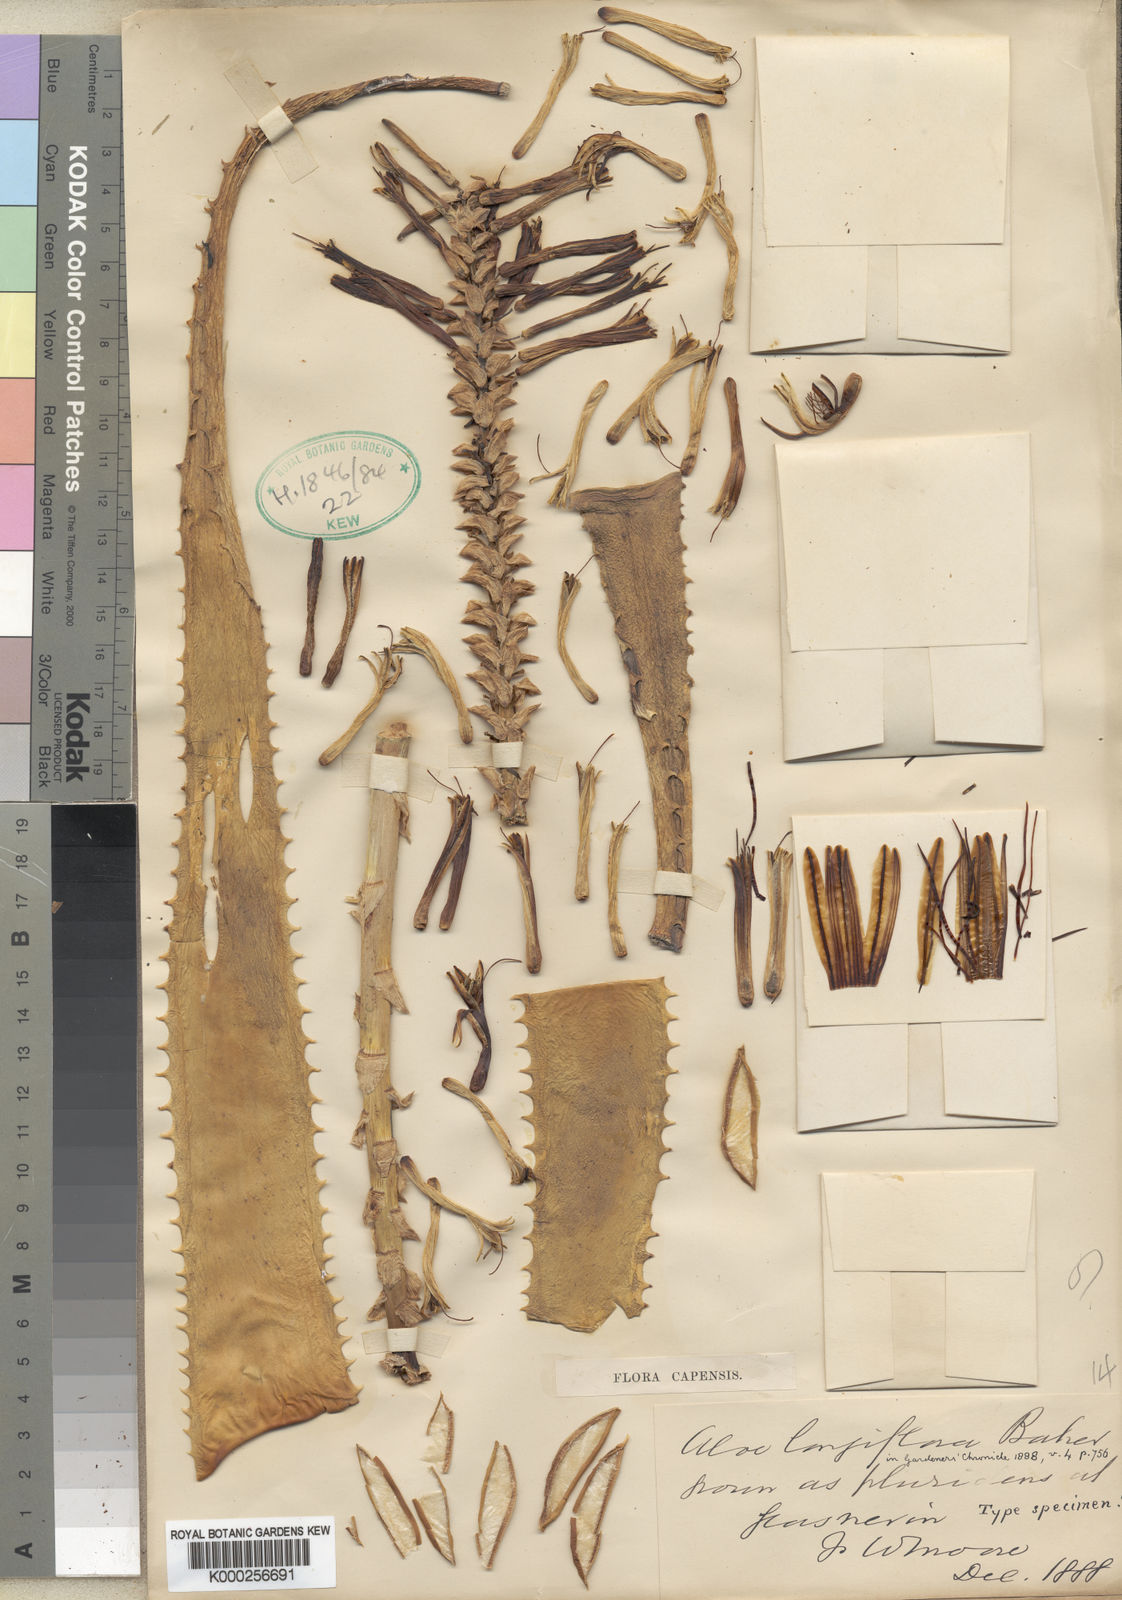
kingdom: Plantae
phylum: Tracheophyta
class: Liliopsida
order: Asparagales
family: Asphodelaceae
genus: Aloe
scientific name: Aloe longiflora
